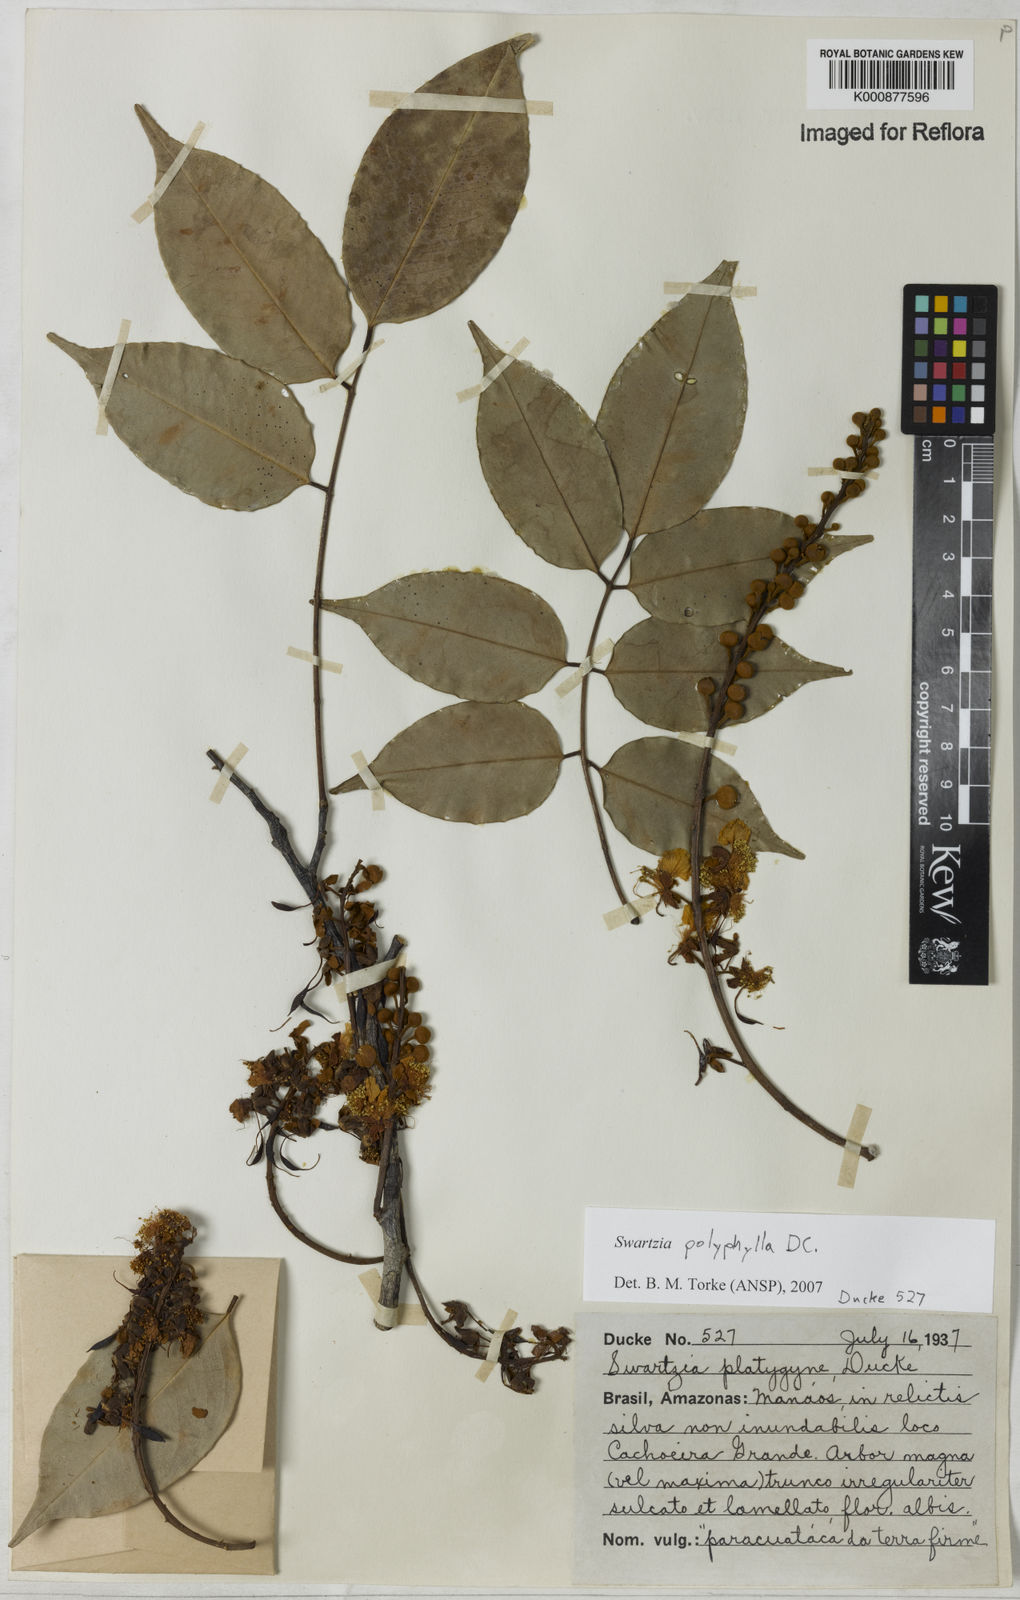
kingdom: Plantae
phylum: Tracheophyta
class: Magnoliopsida
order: Fabales
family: Fabaceae
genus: Swartzia
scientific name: Swartzia polyphylla
